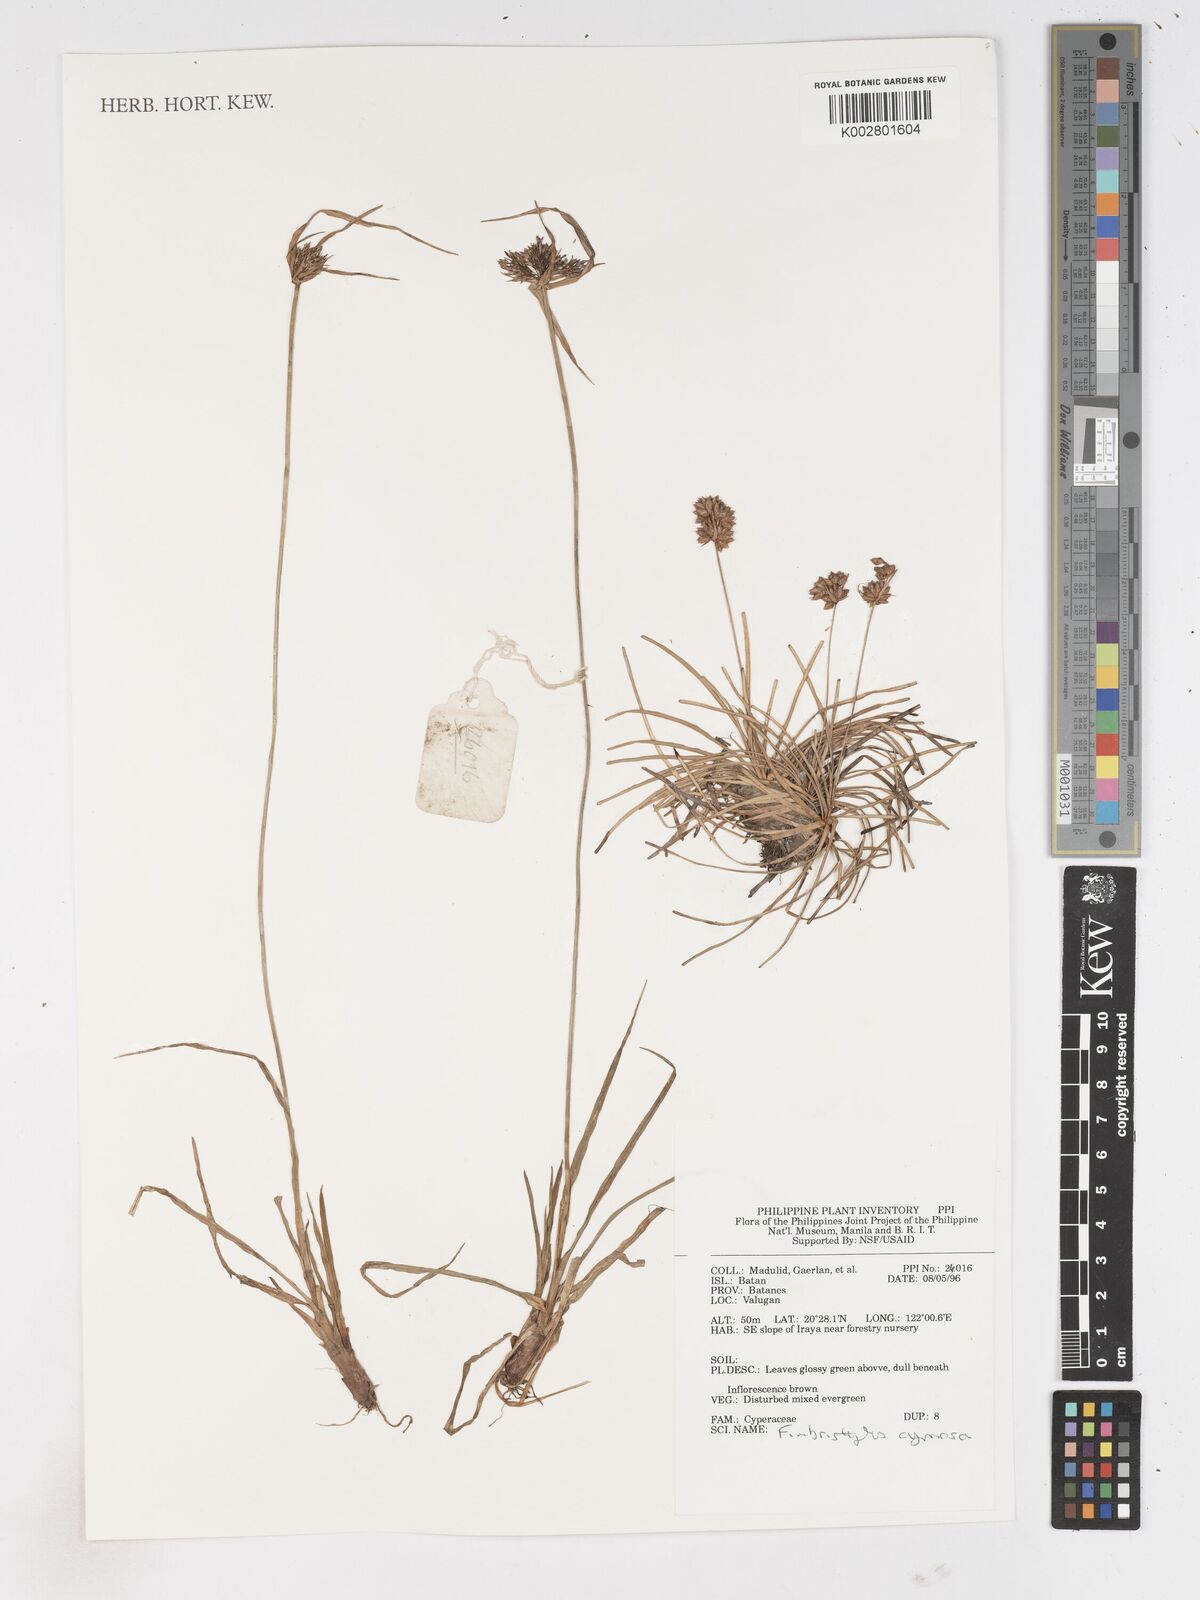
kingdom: Plantae
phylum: Tracheophyta
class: Liliopsida
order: Poales
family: Cyperaceae
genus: Fimbristylis
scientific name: Fimbristylis cymosa
